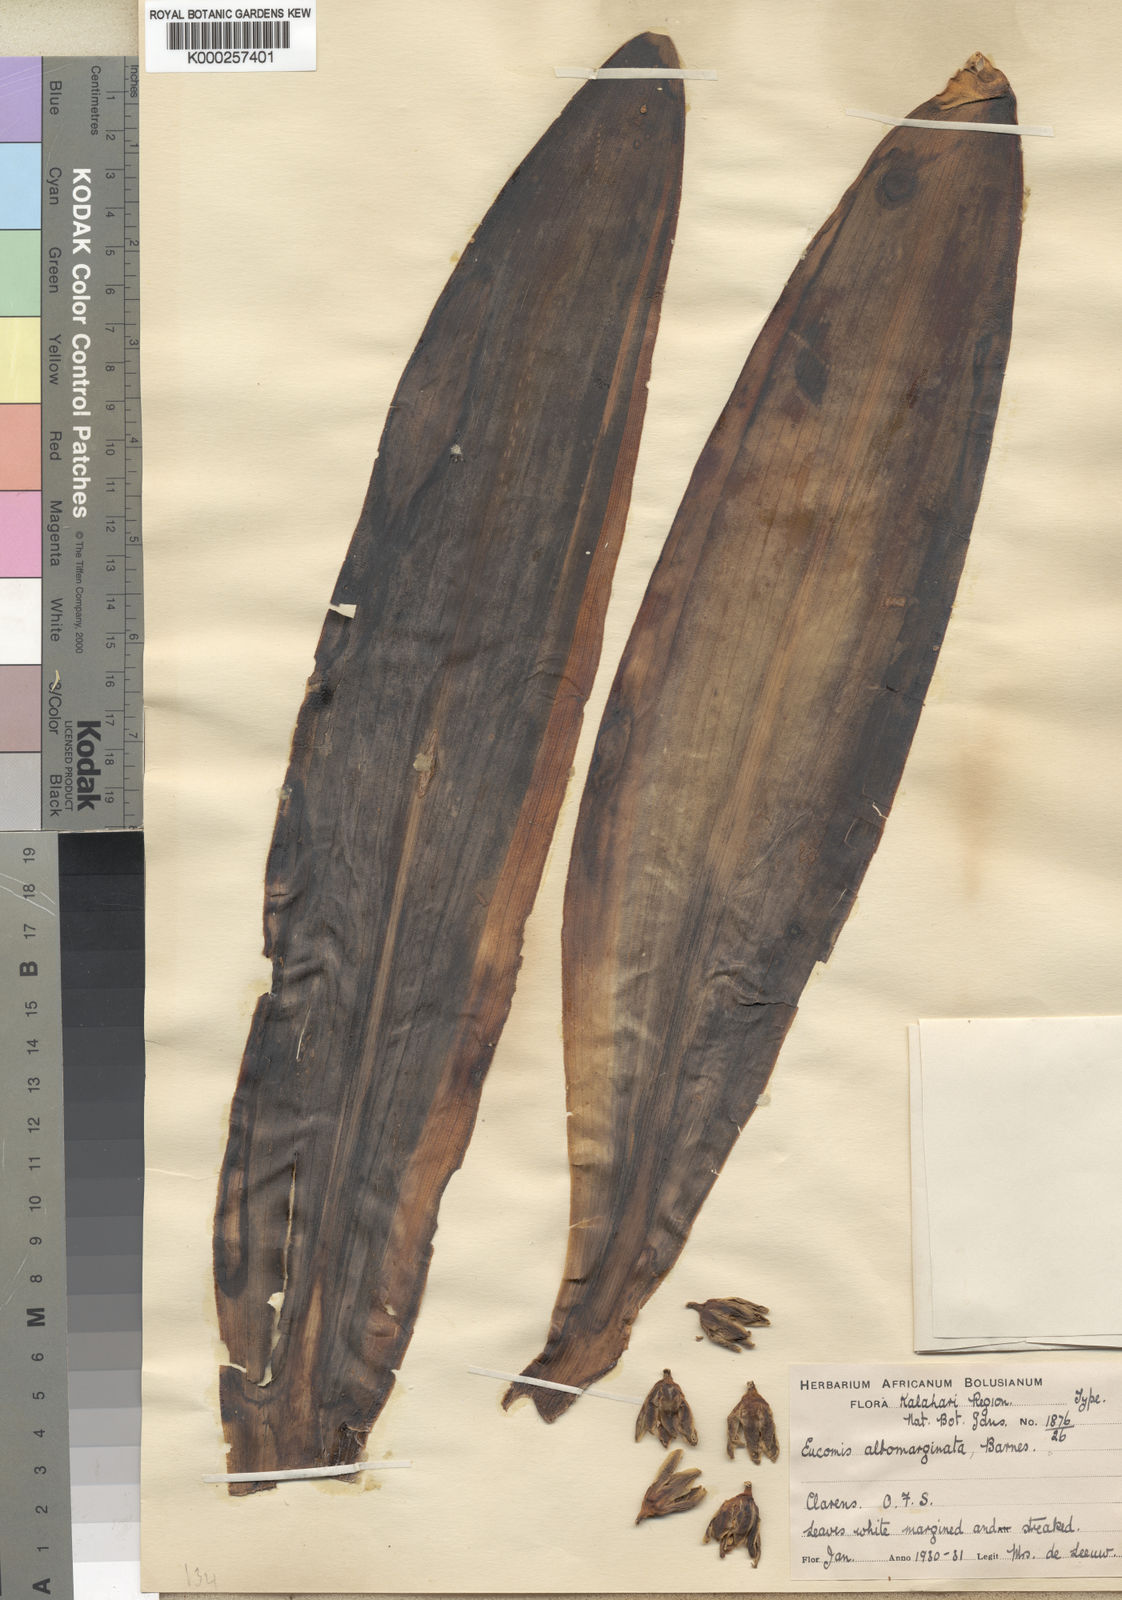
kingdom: Plantae
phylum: Tracheophyta
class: Liliopsida
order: Asparagales
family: Asparagaceae
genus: Eucomis
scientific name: Eucomis albomarginata
